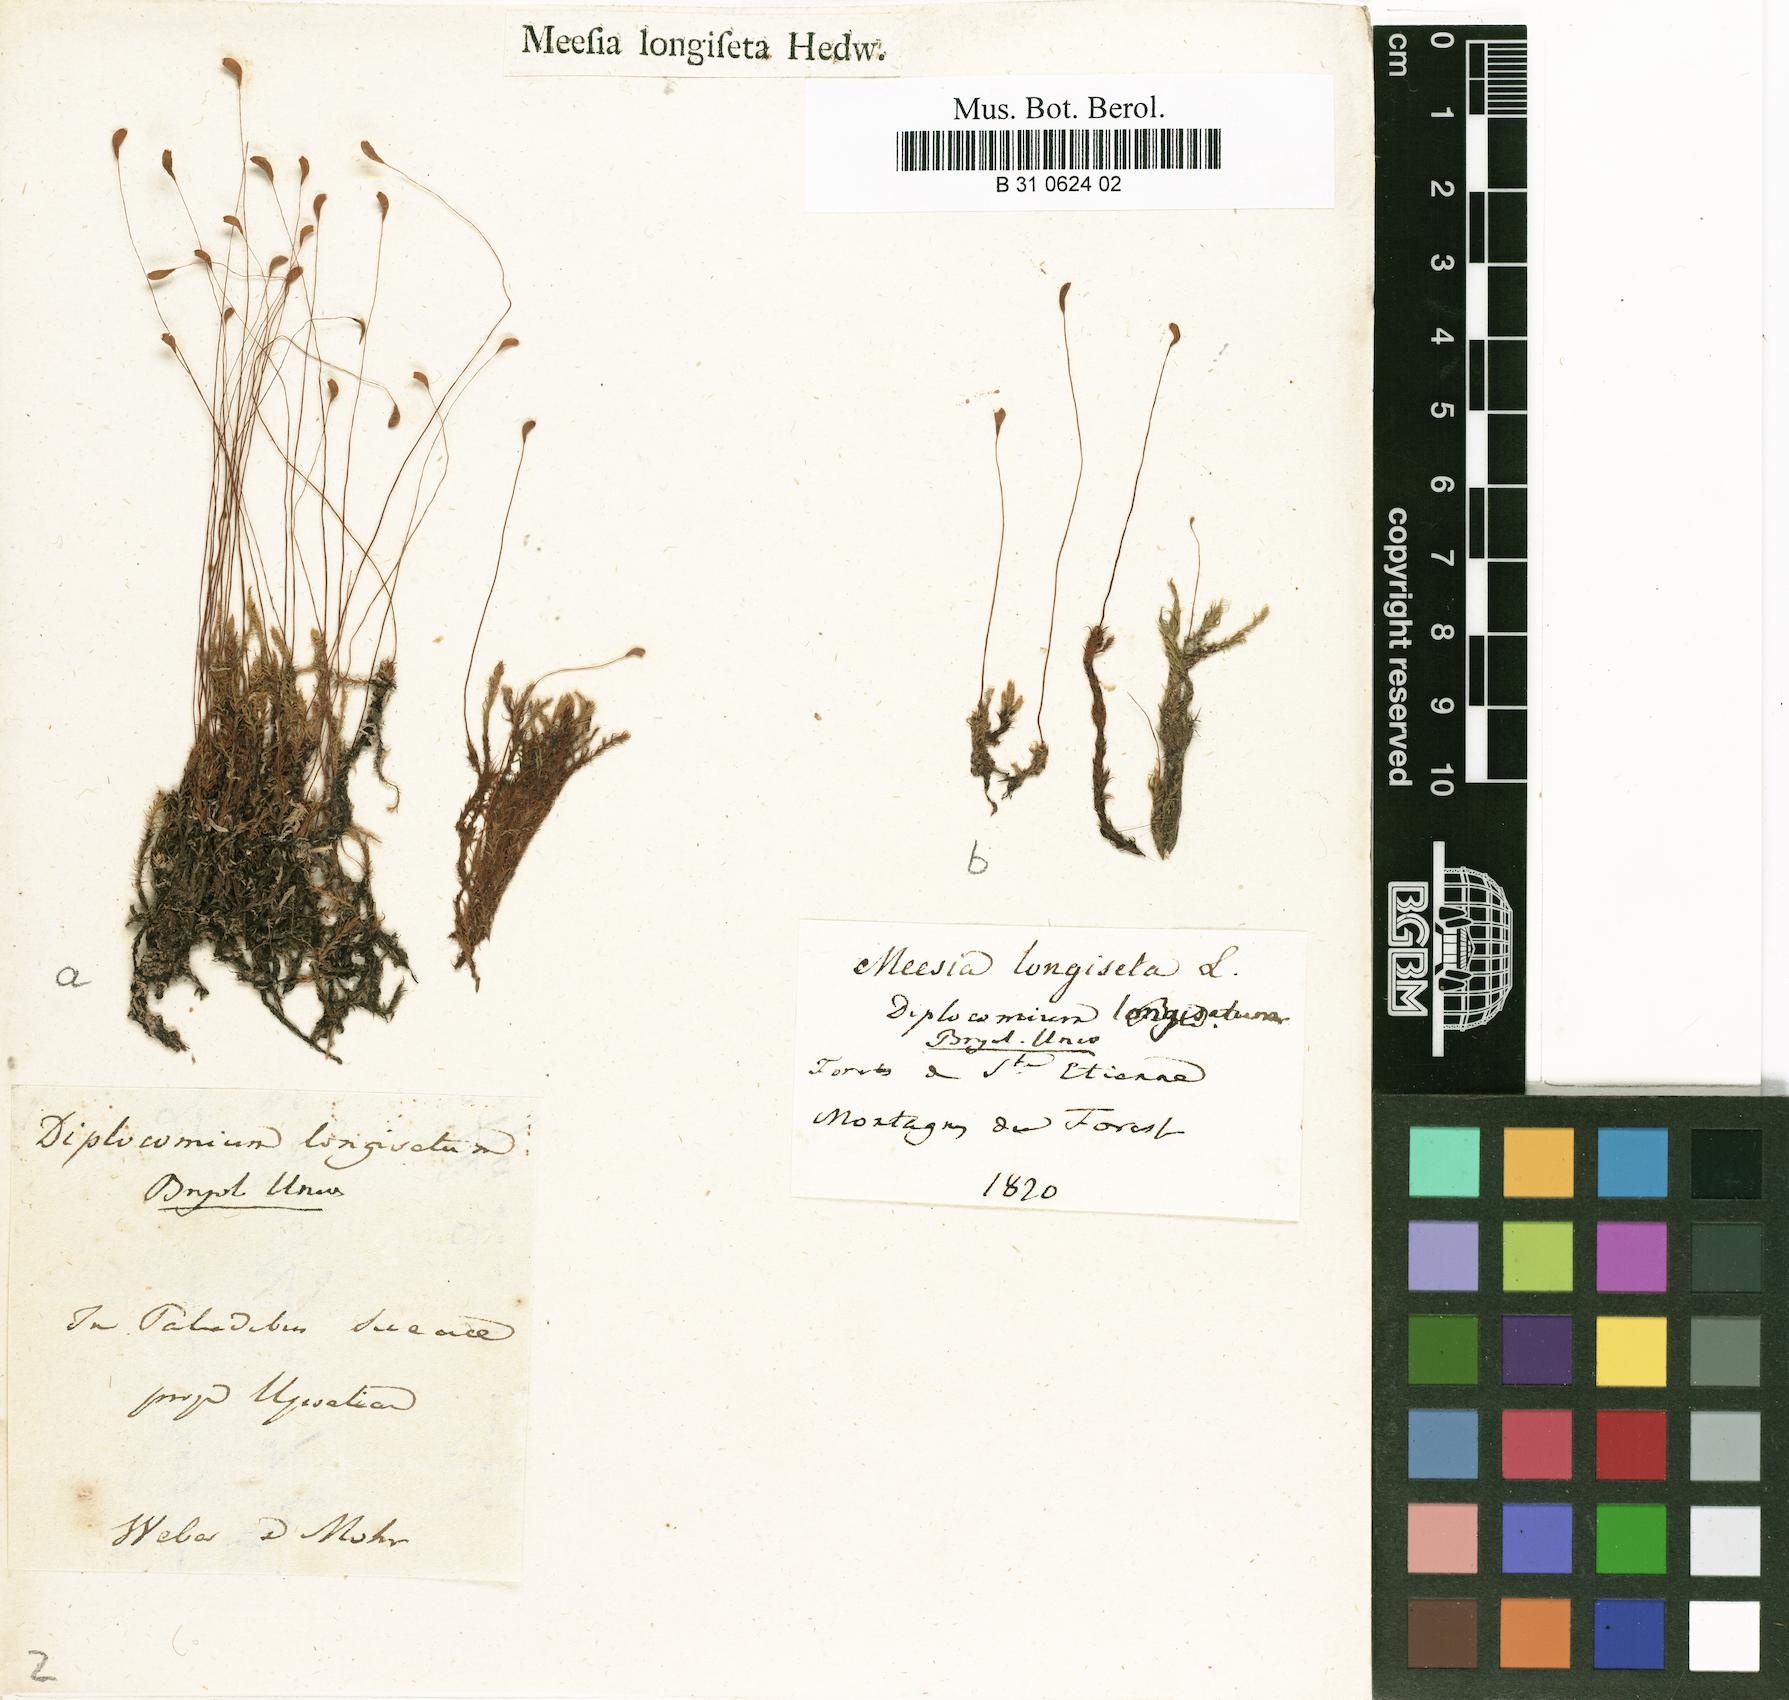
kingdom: Plantae
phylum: Bryophyta
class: Bryopsida
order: Splachnales
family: Meesiaceae
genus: Meesia
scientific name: Meesia longiseta
